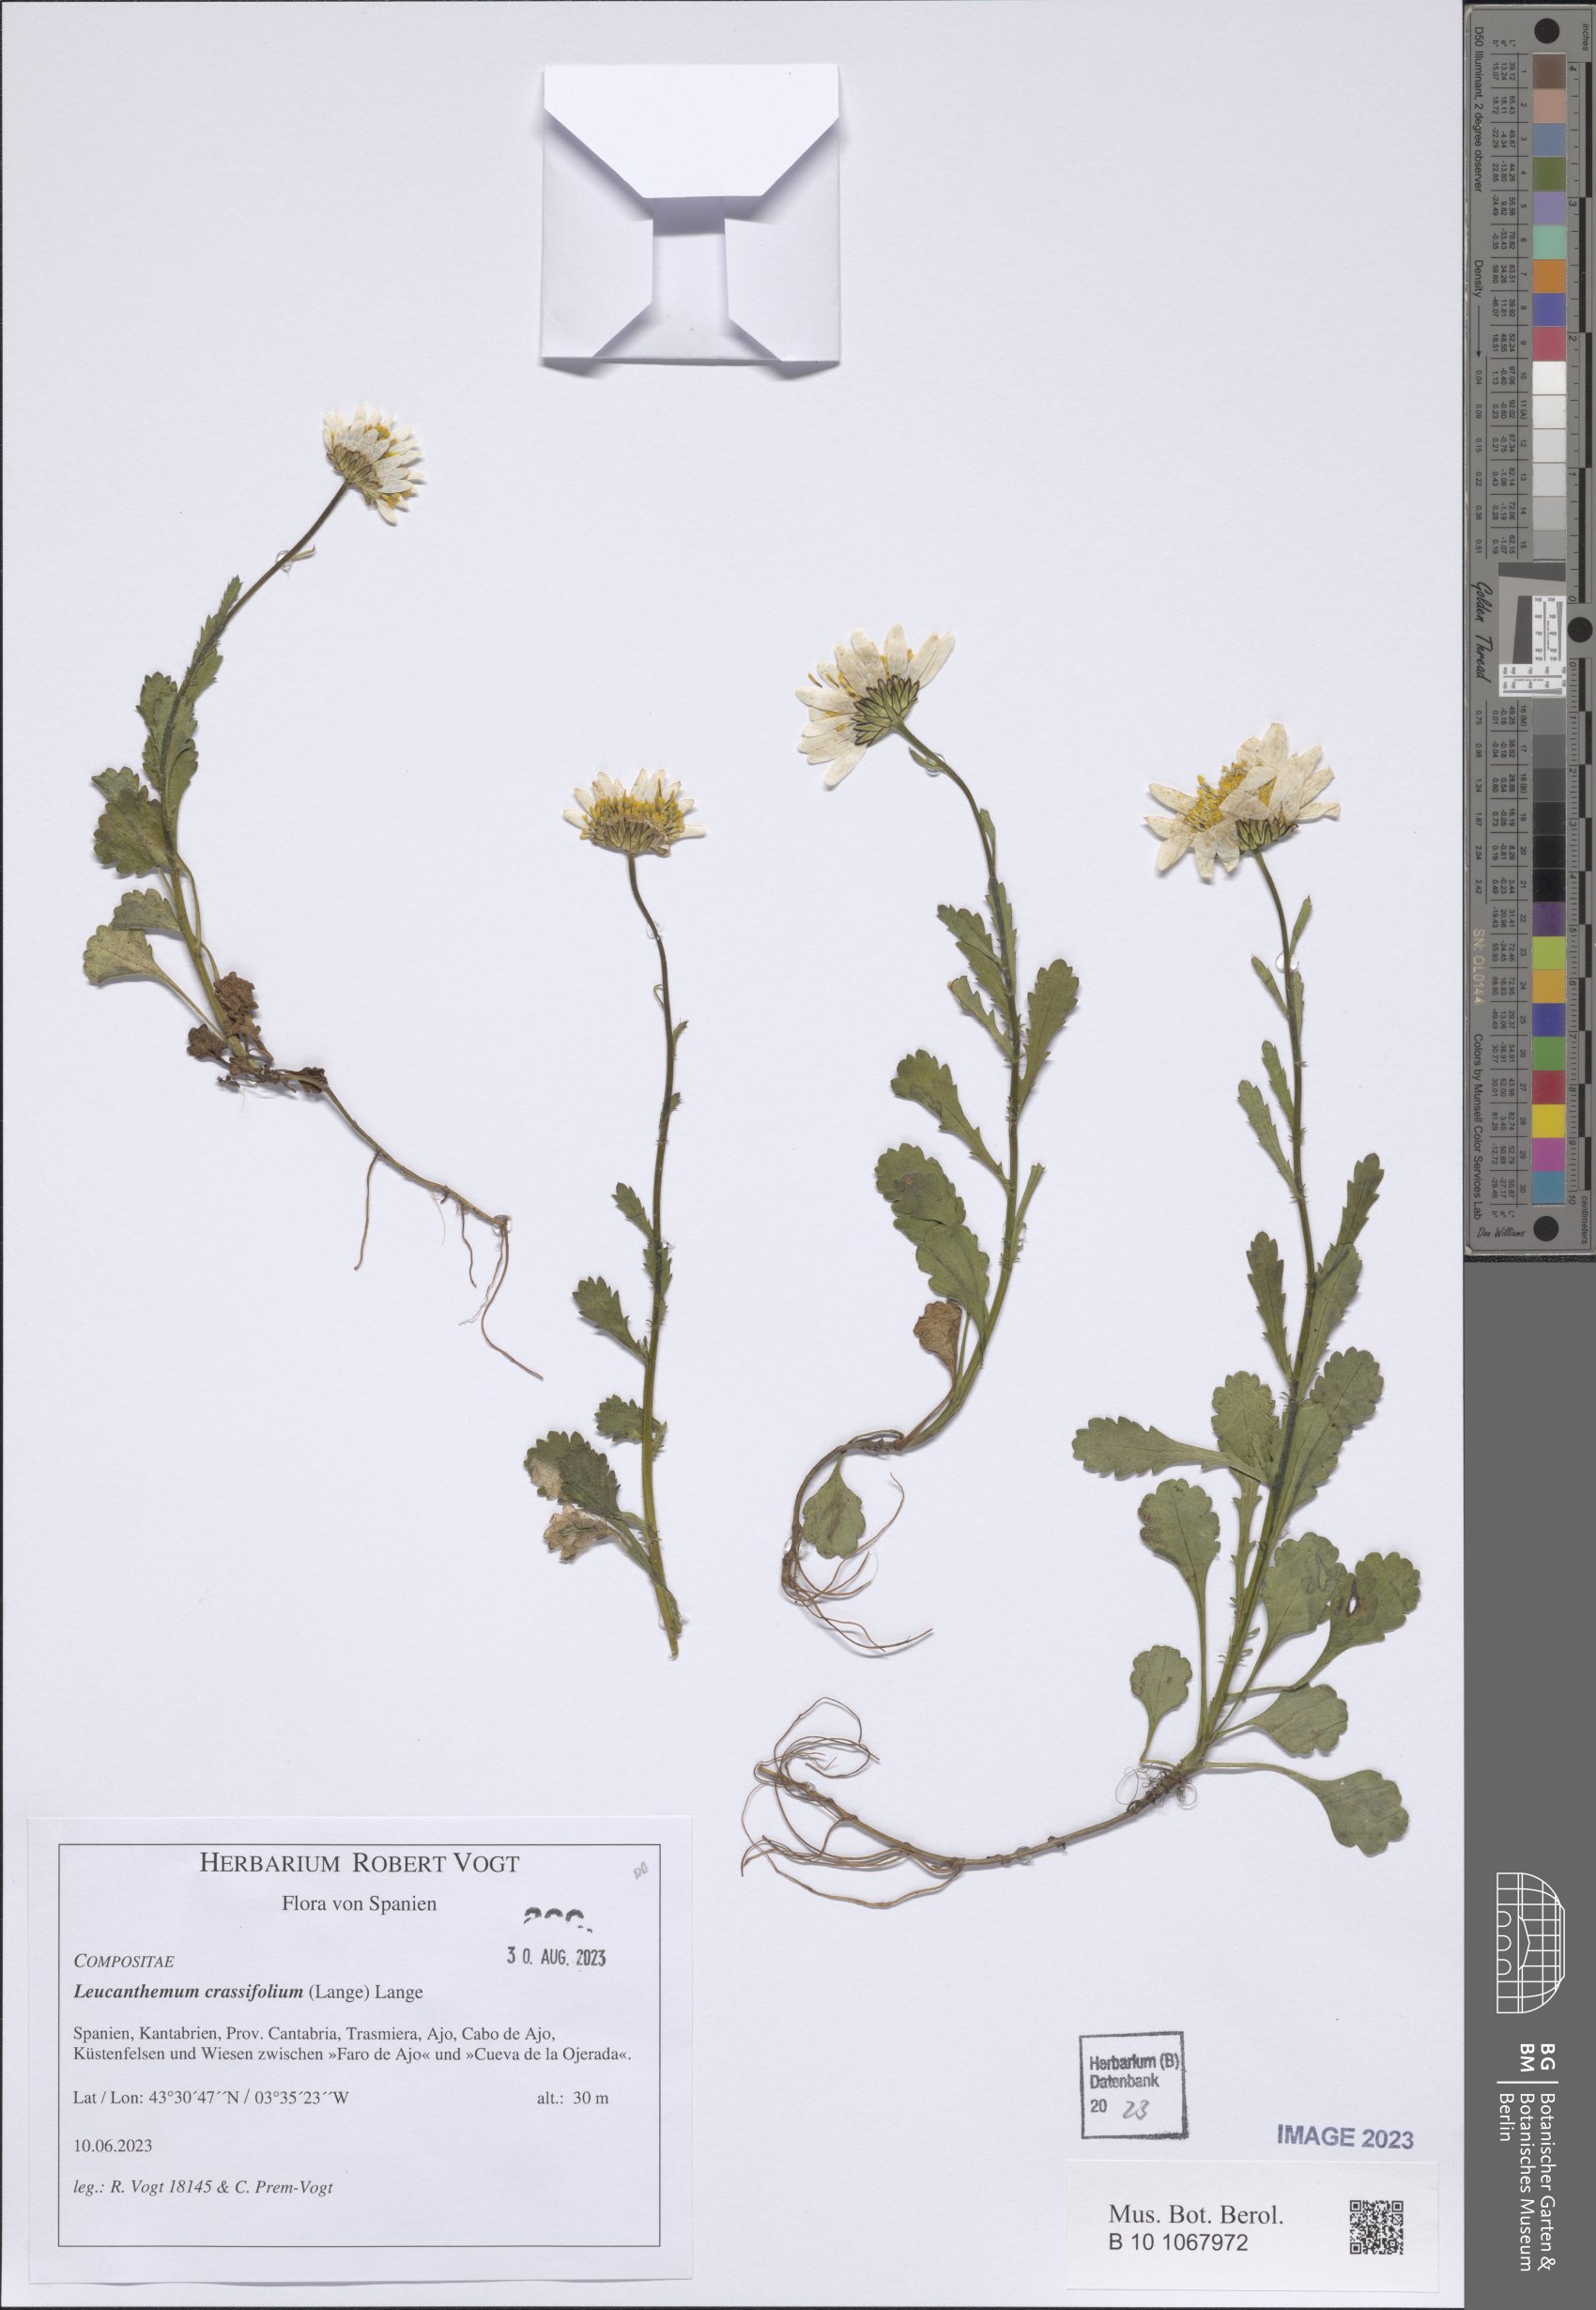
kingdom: Plantae
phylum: Tracheophyta
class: Magnoliopsida
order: Asterales
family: Asteraceae
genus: Leucanthemum
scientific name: Leucanthemum crassifolium
